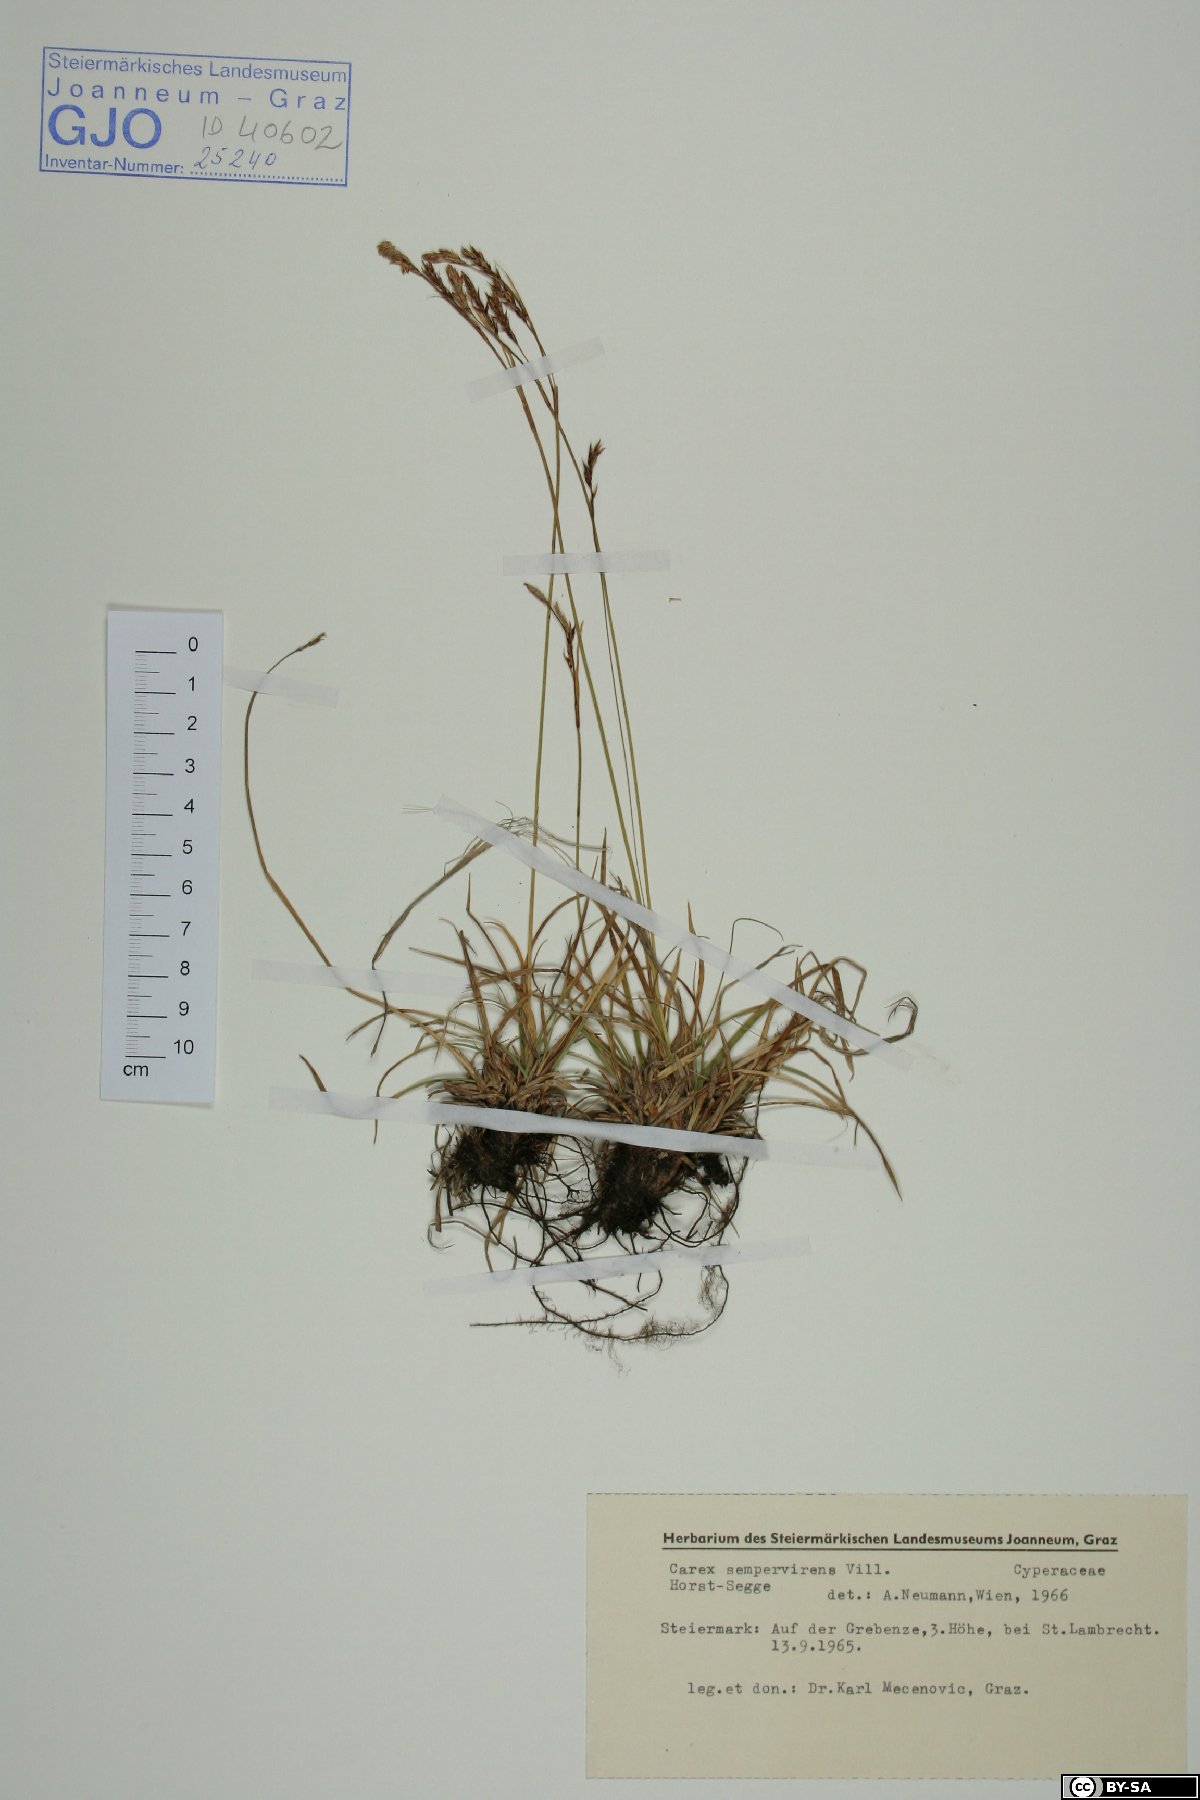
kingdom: Plantae
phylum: Tracheophyta
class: Liliopsida
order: Poales
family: Cyperaceae
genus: Carex
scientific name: Carex sempervirens
